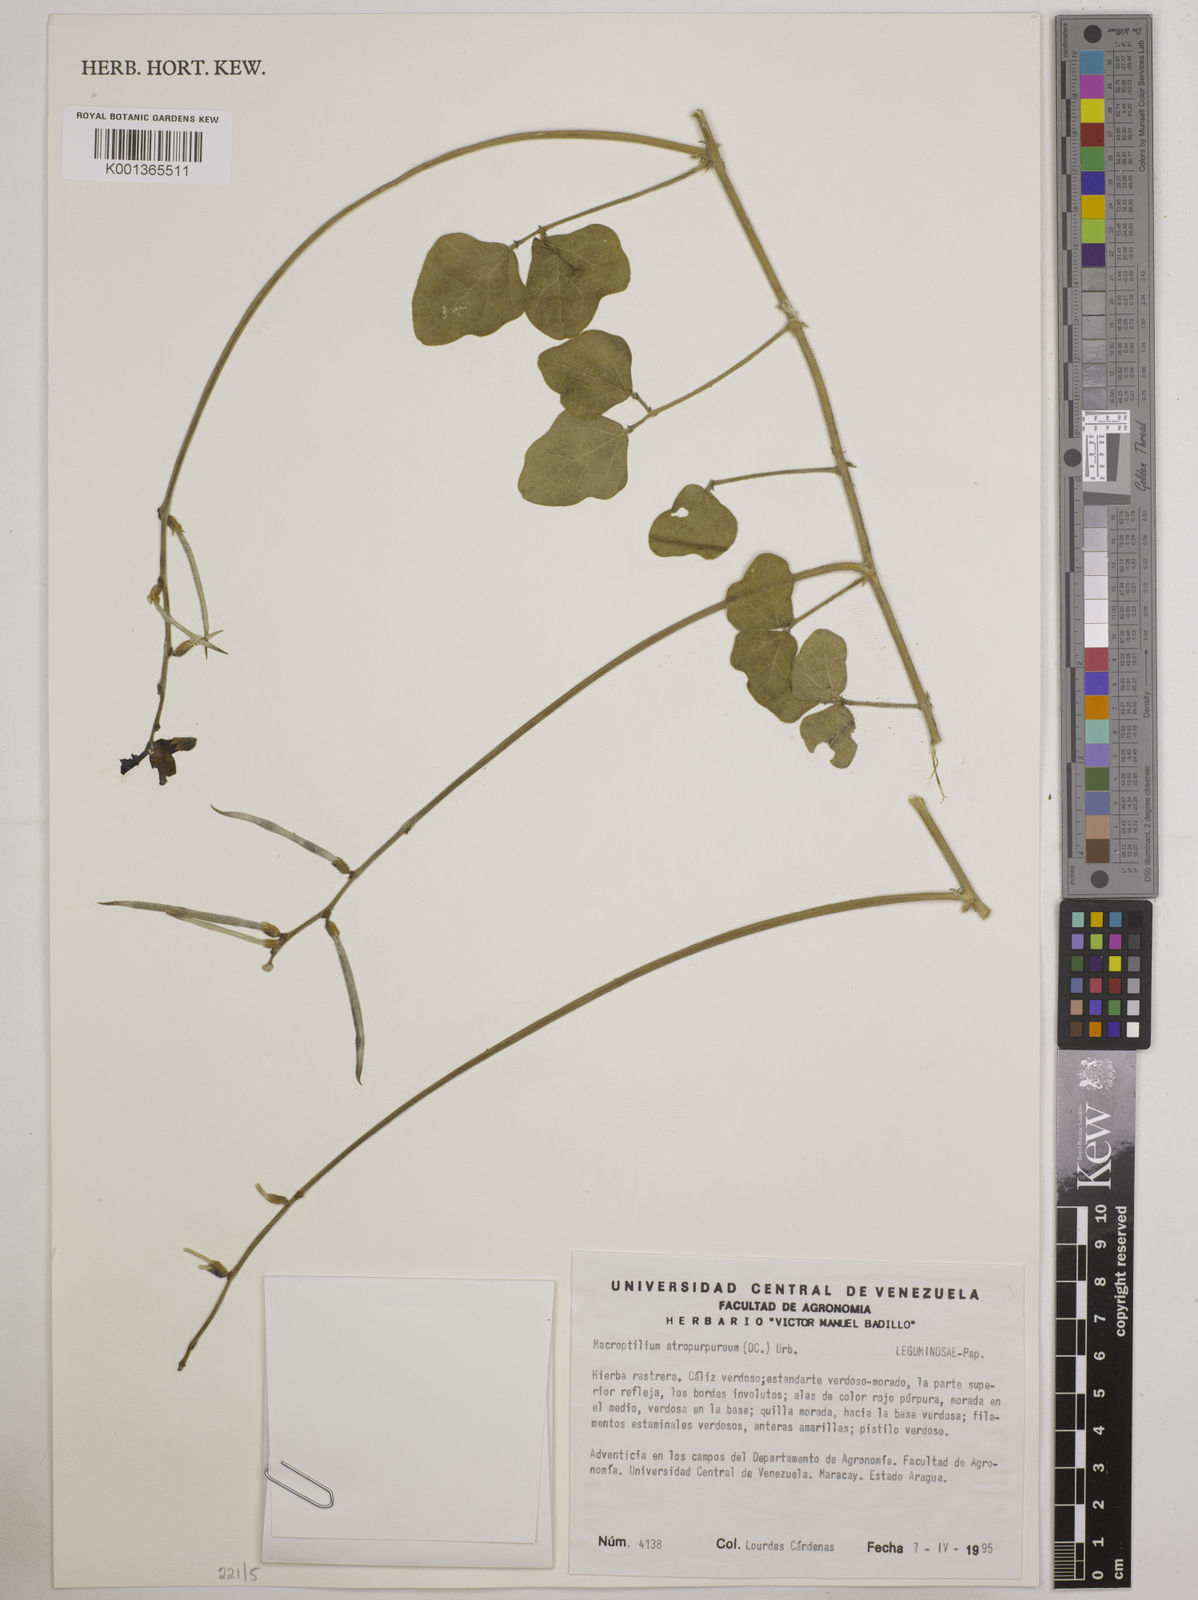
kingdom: Plantae
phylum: Tracheophyta
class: Magnoliopsida
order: Fabales
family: Fabaceae
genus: Macroptilium
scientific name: Macroptilium atropurpureum
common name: Purple bushbean
